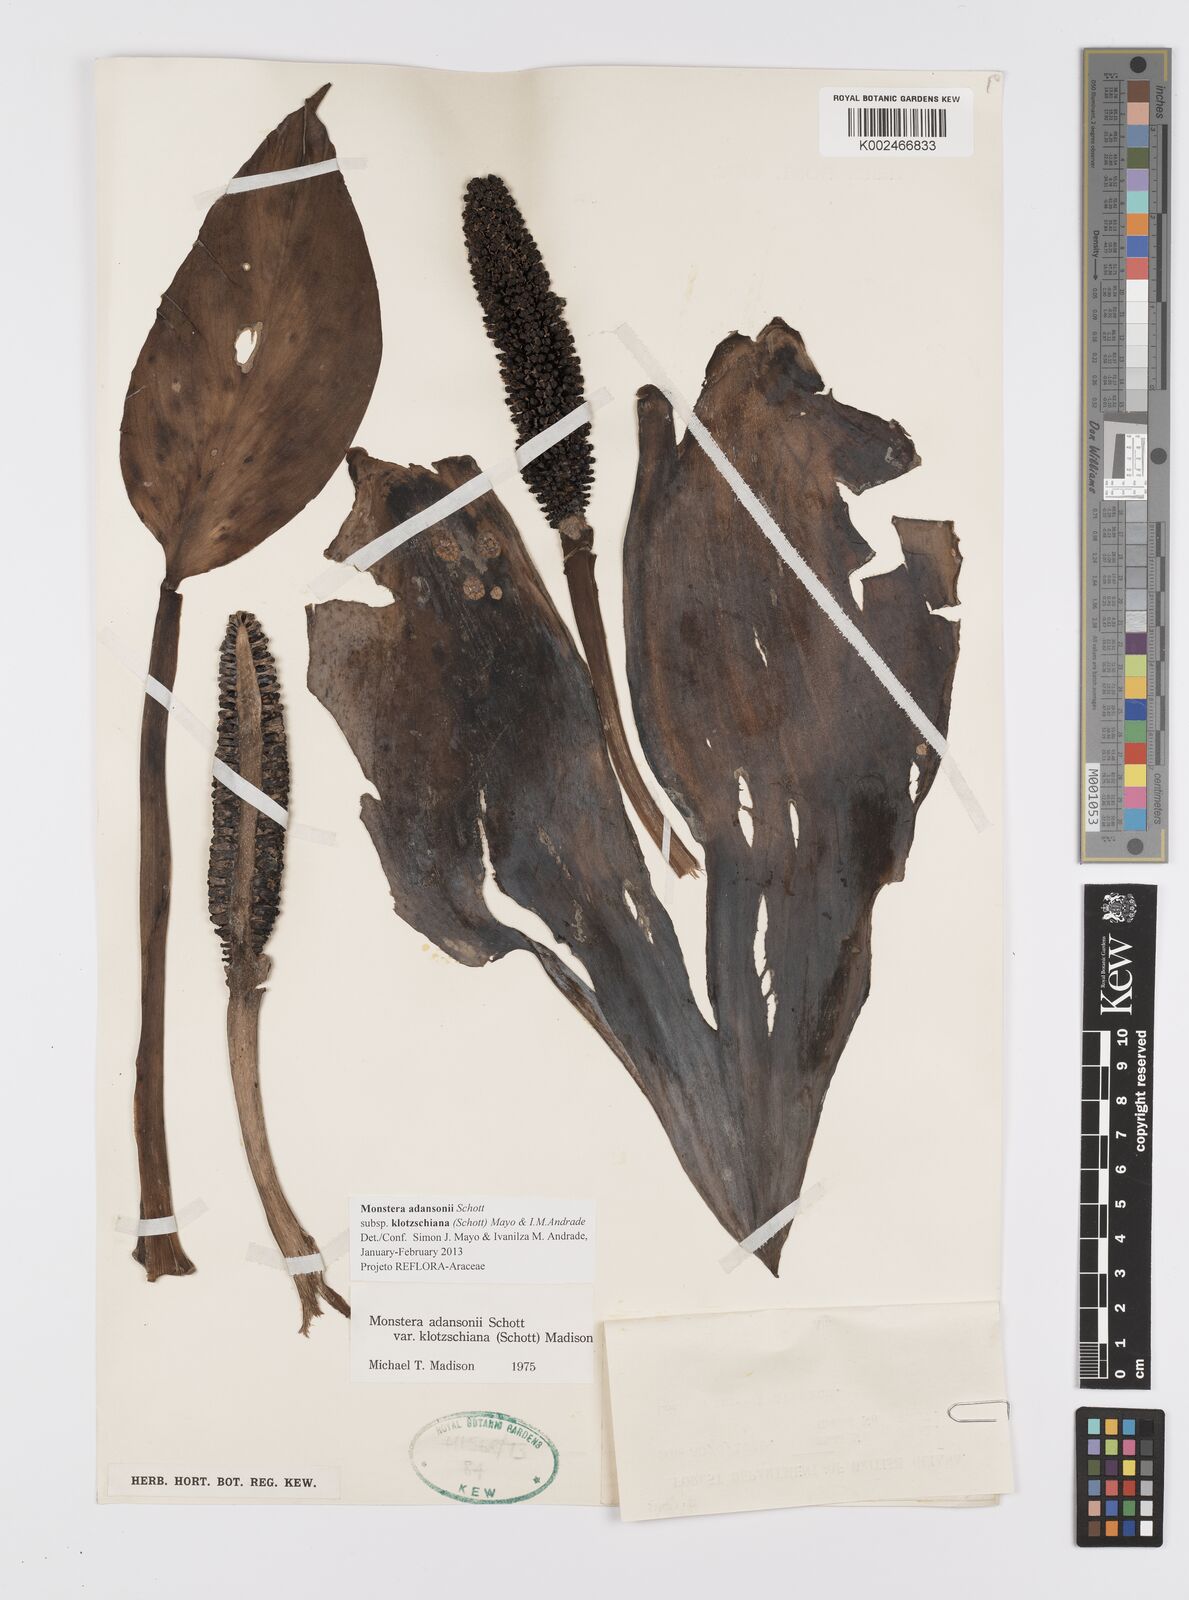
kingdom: Plantae
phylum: Tracheophyta
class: Liliopsida
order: Alismatales
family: Araceae
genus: Monstera
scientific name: Monstera adansonii
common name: Tarovine
